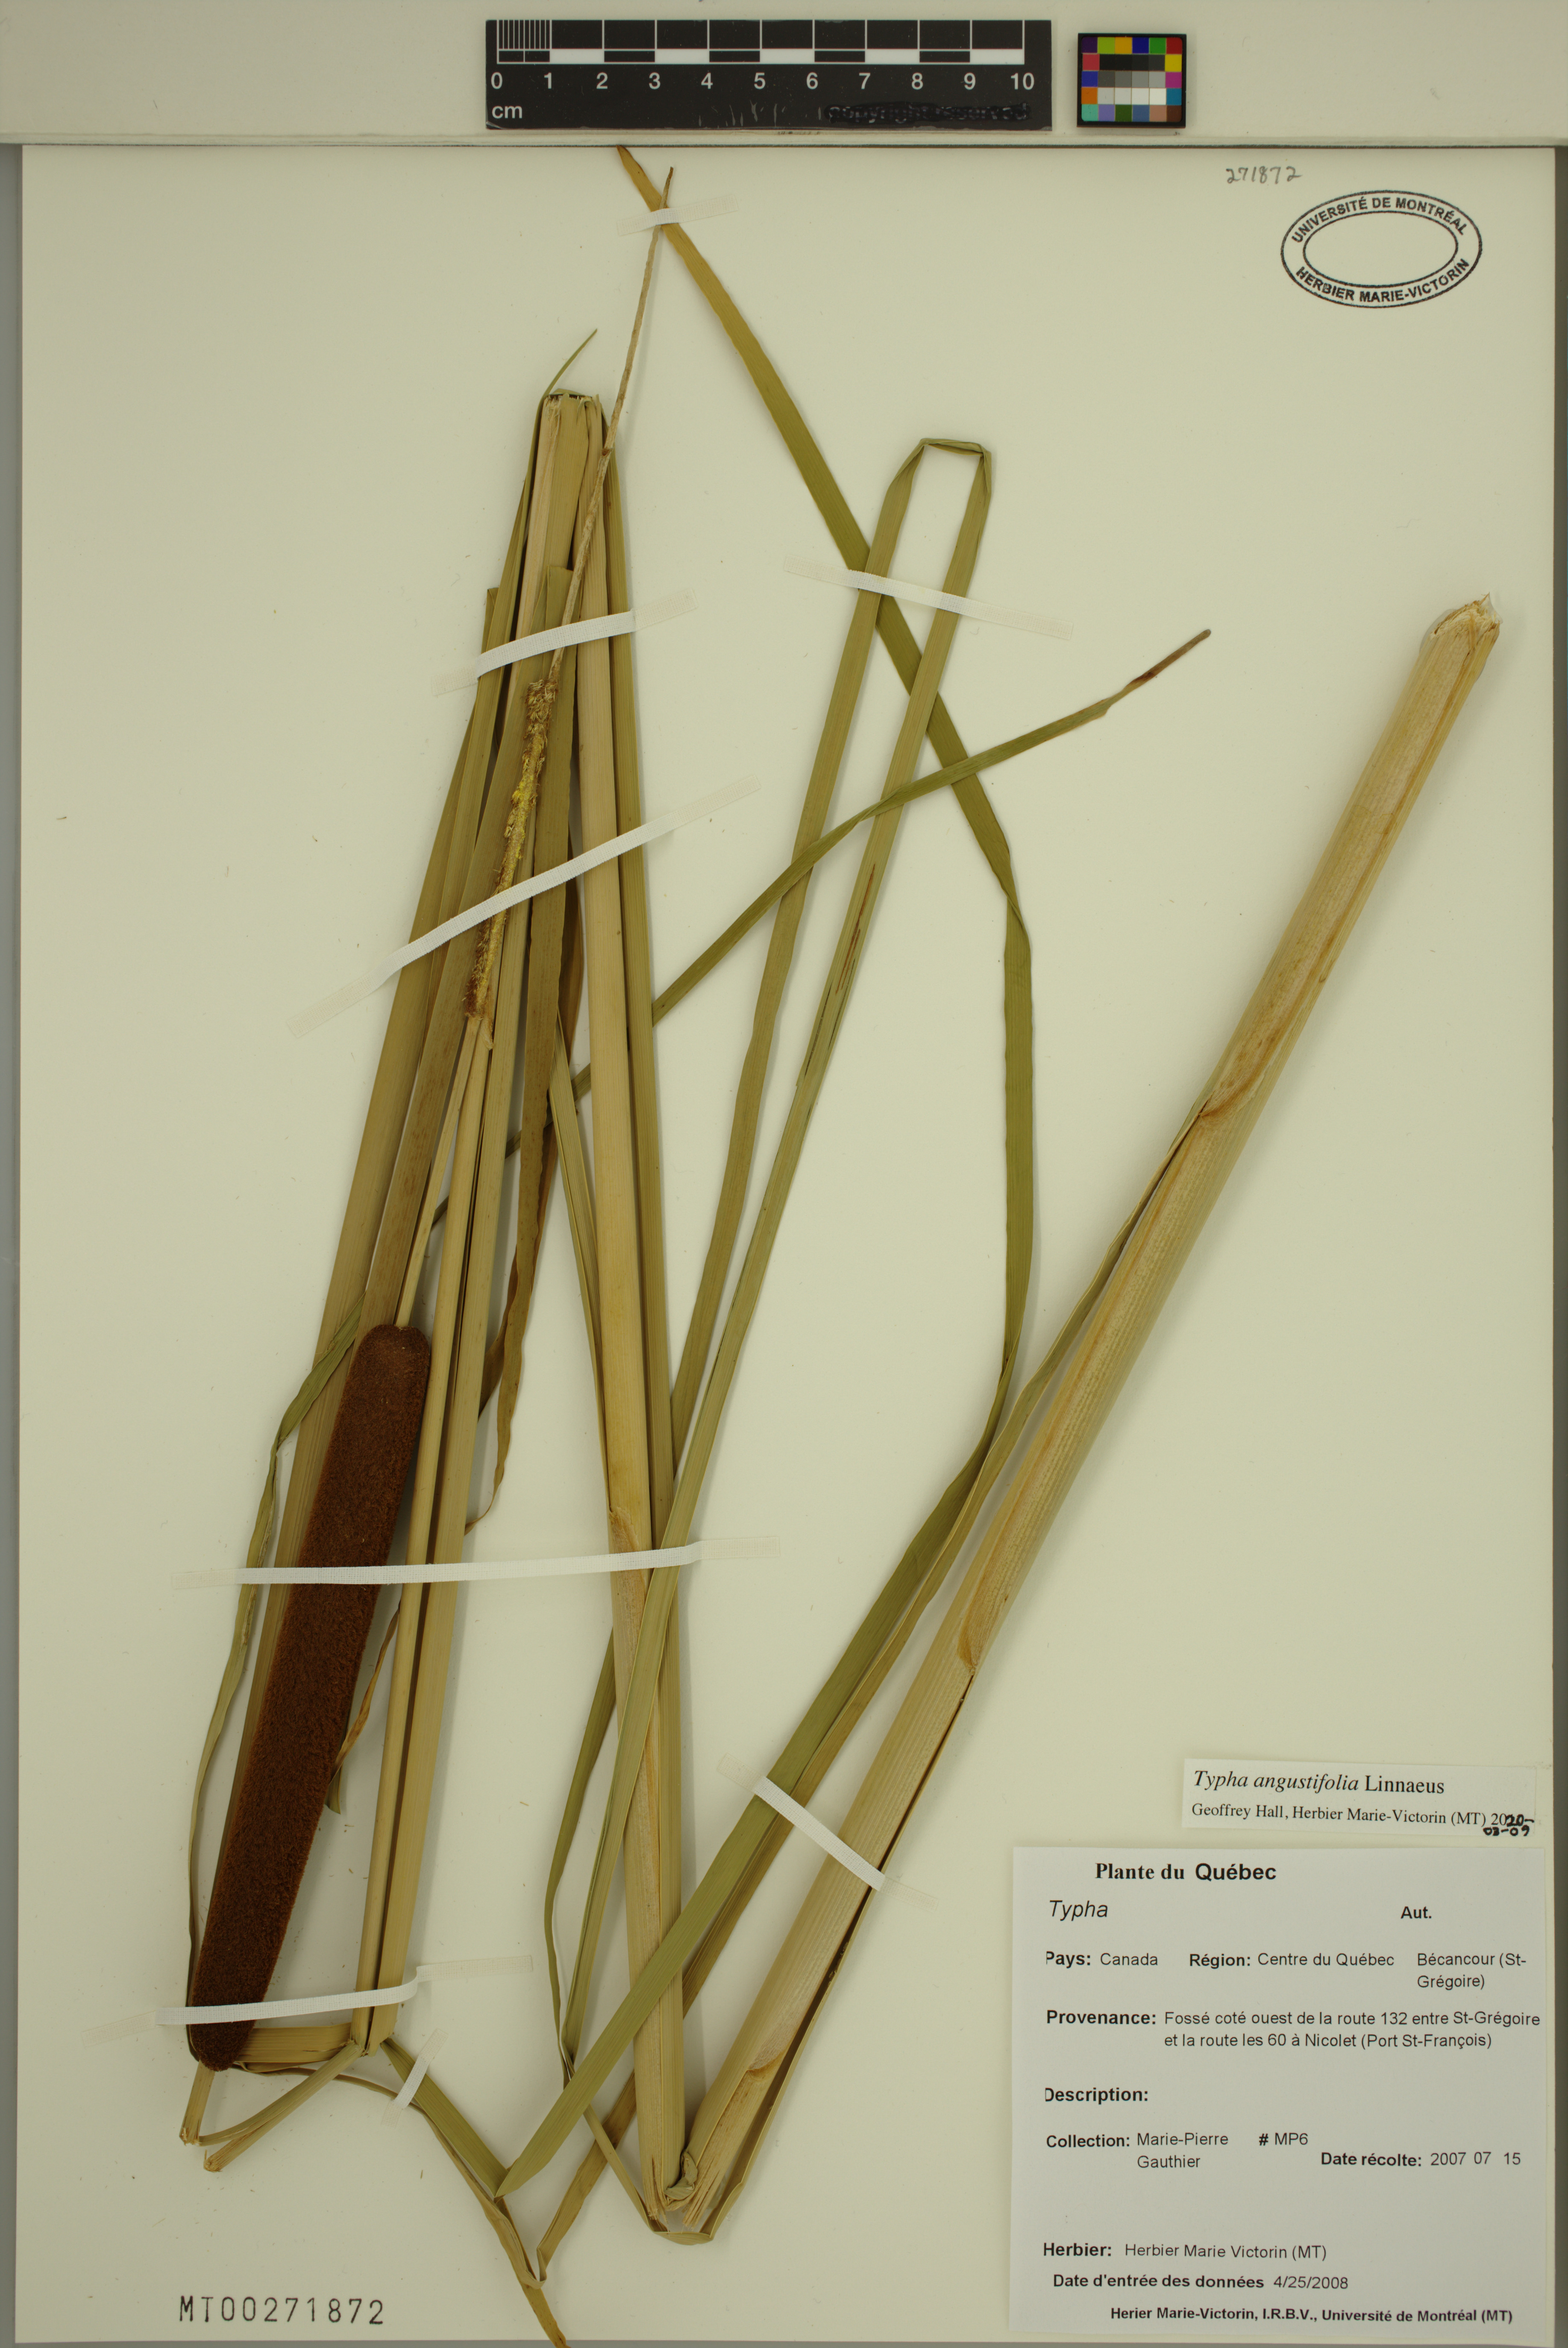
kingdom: Plantae
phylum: Tracheophyta
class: Liliopsida
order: Poales
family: Typhaceae
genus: Typha
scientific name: Typha angustifolia
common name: Lesser bulrush
